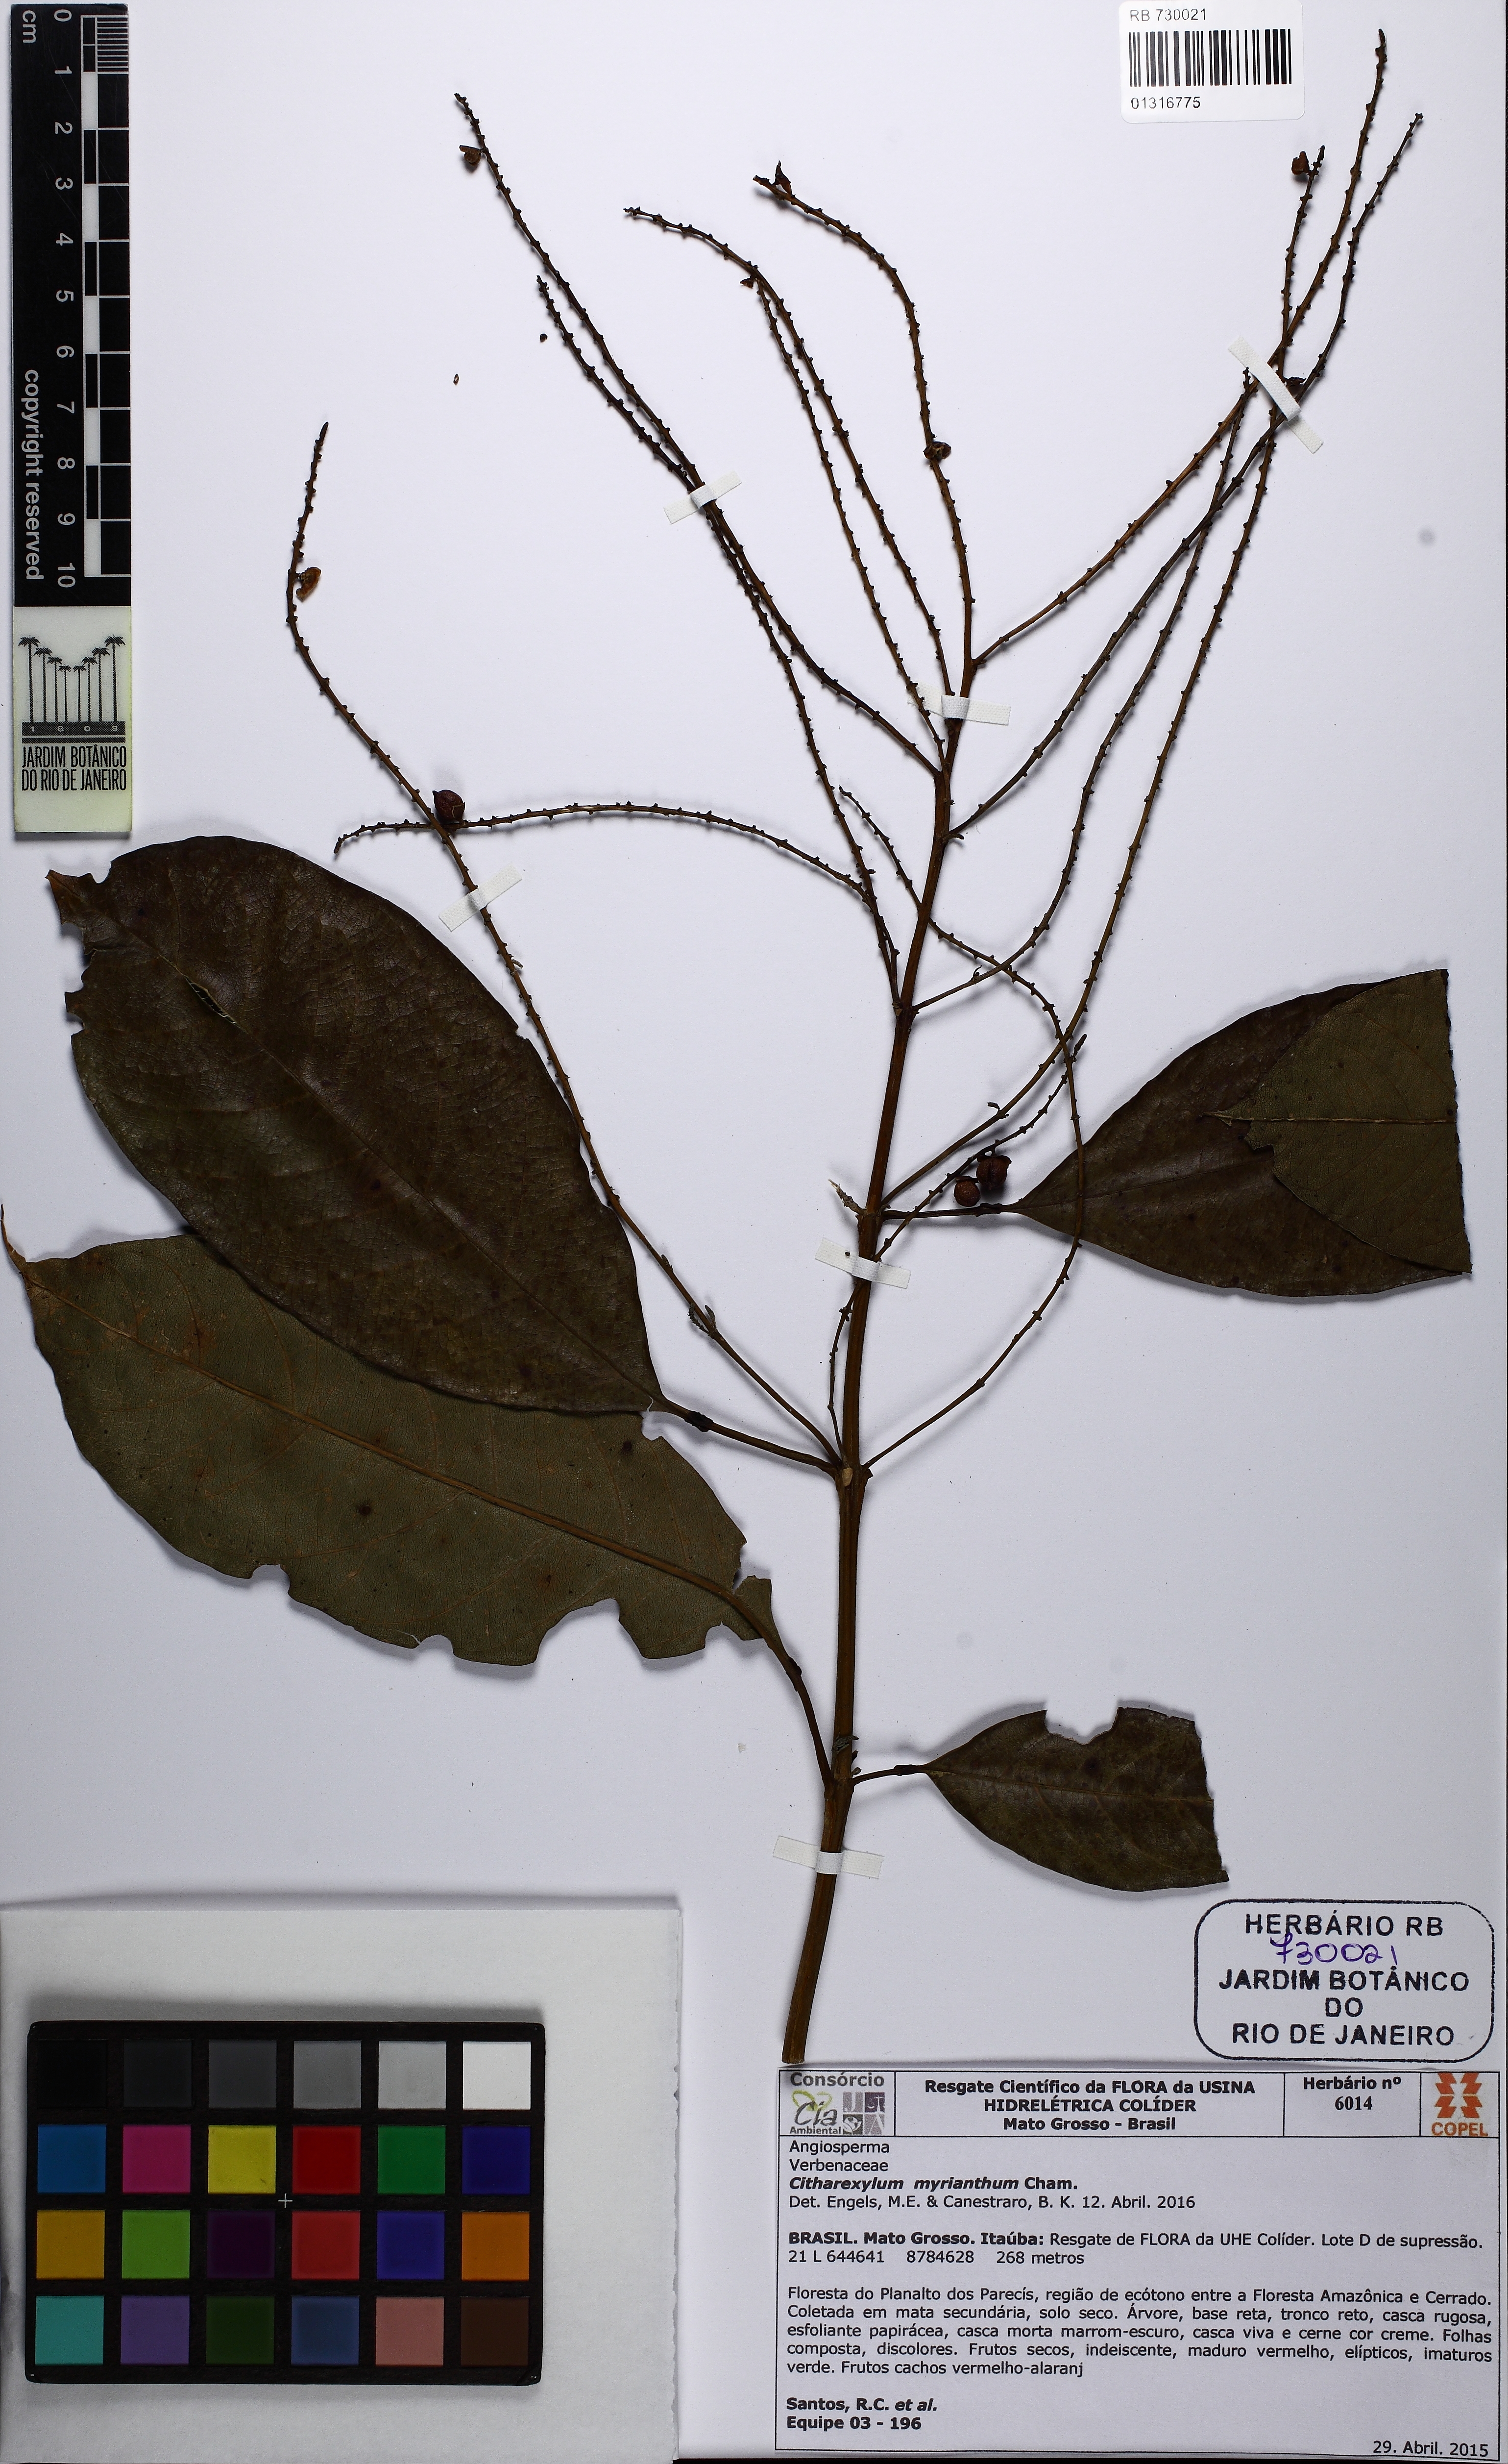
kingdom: Plantae
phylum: Tracheophyta
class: Magnoliopsida
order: Lamiales
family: Verbenaceae
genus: Citharexylum
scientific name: Citharexylum myrianthum
